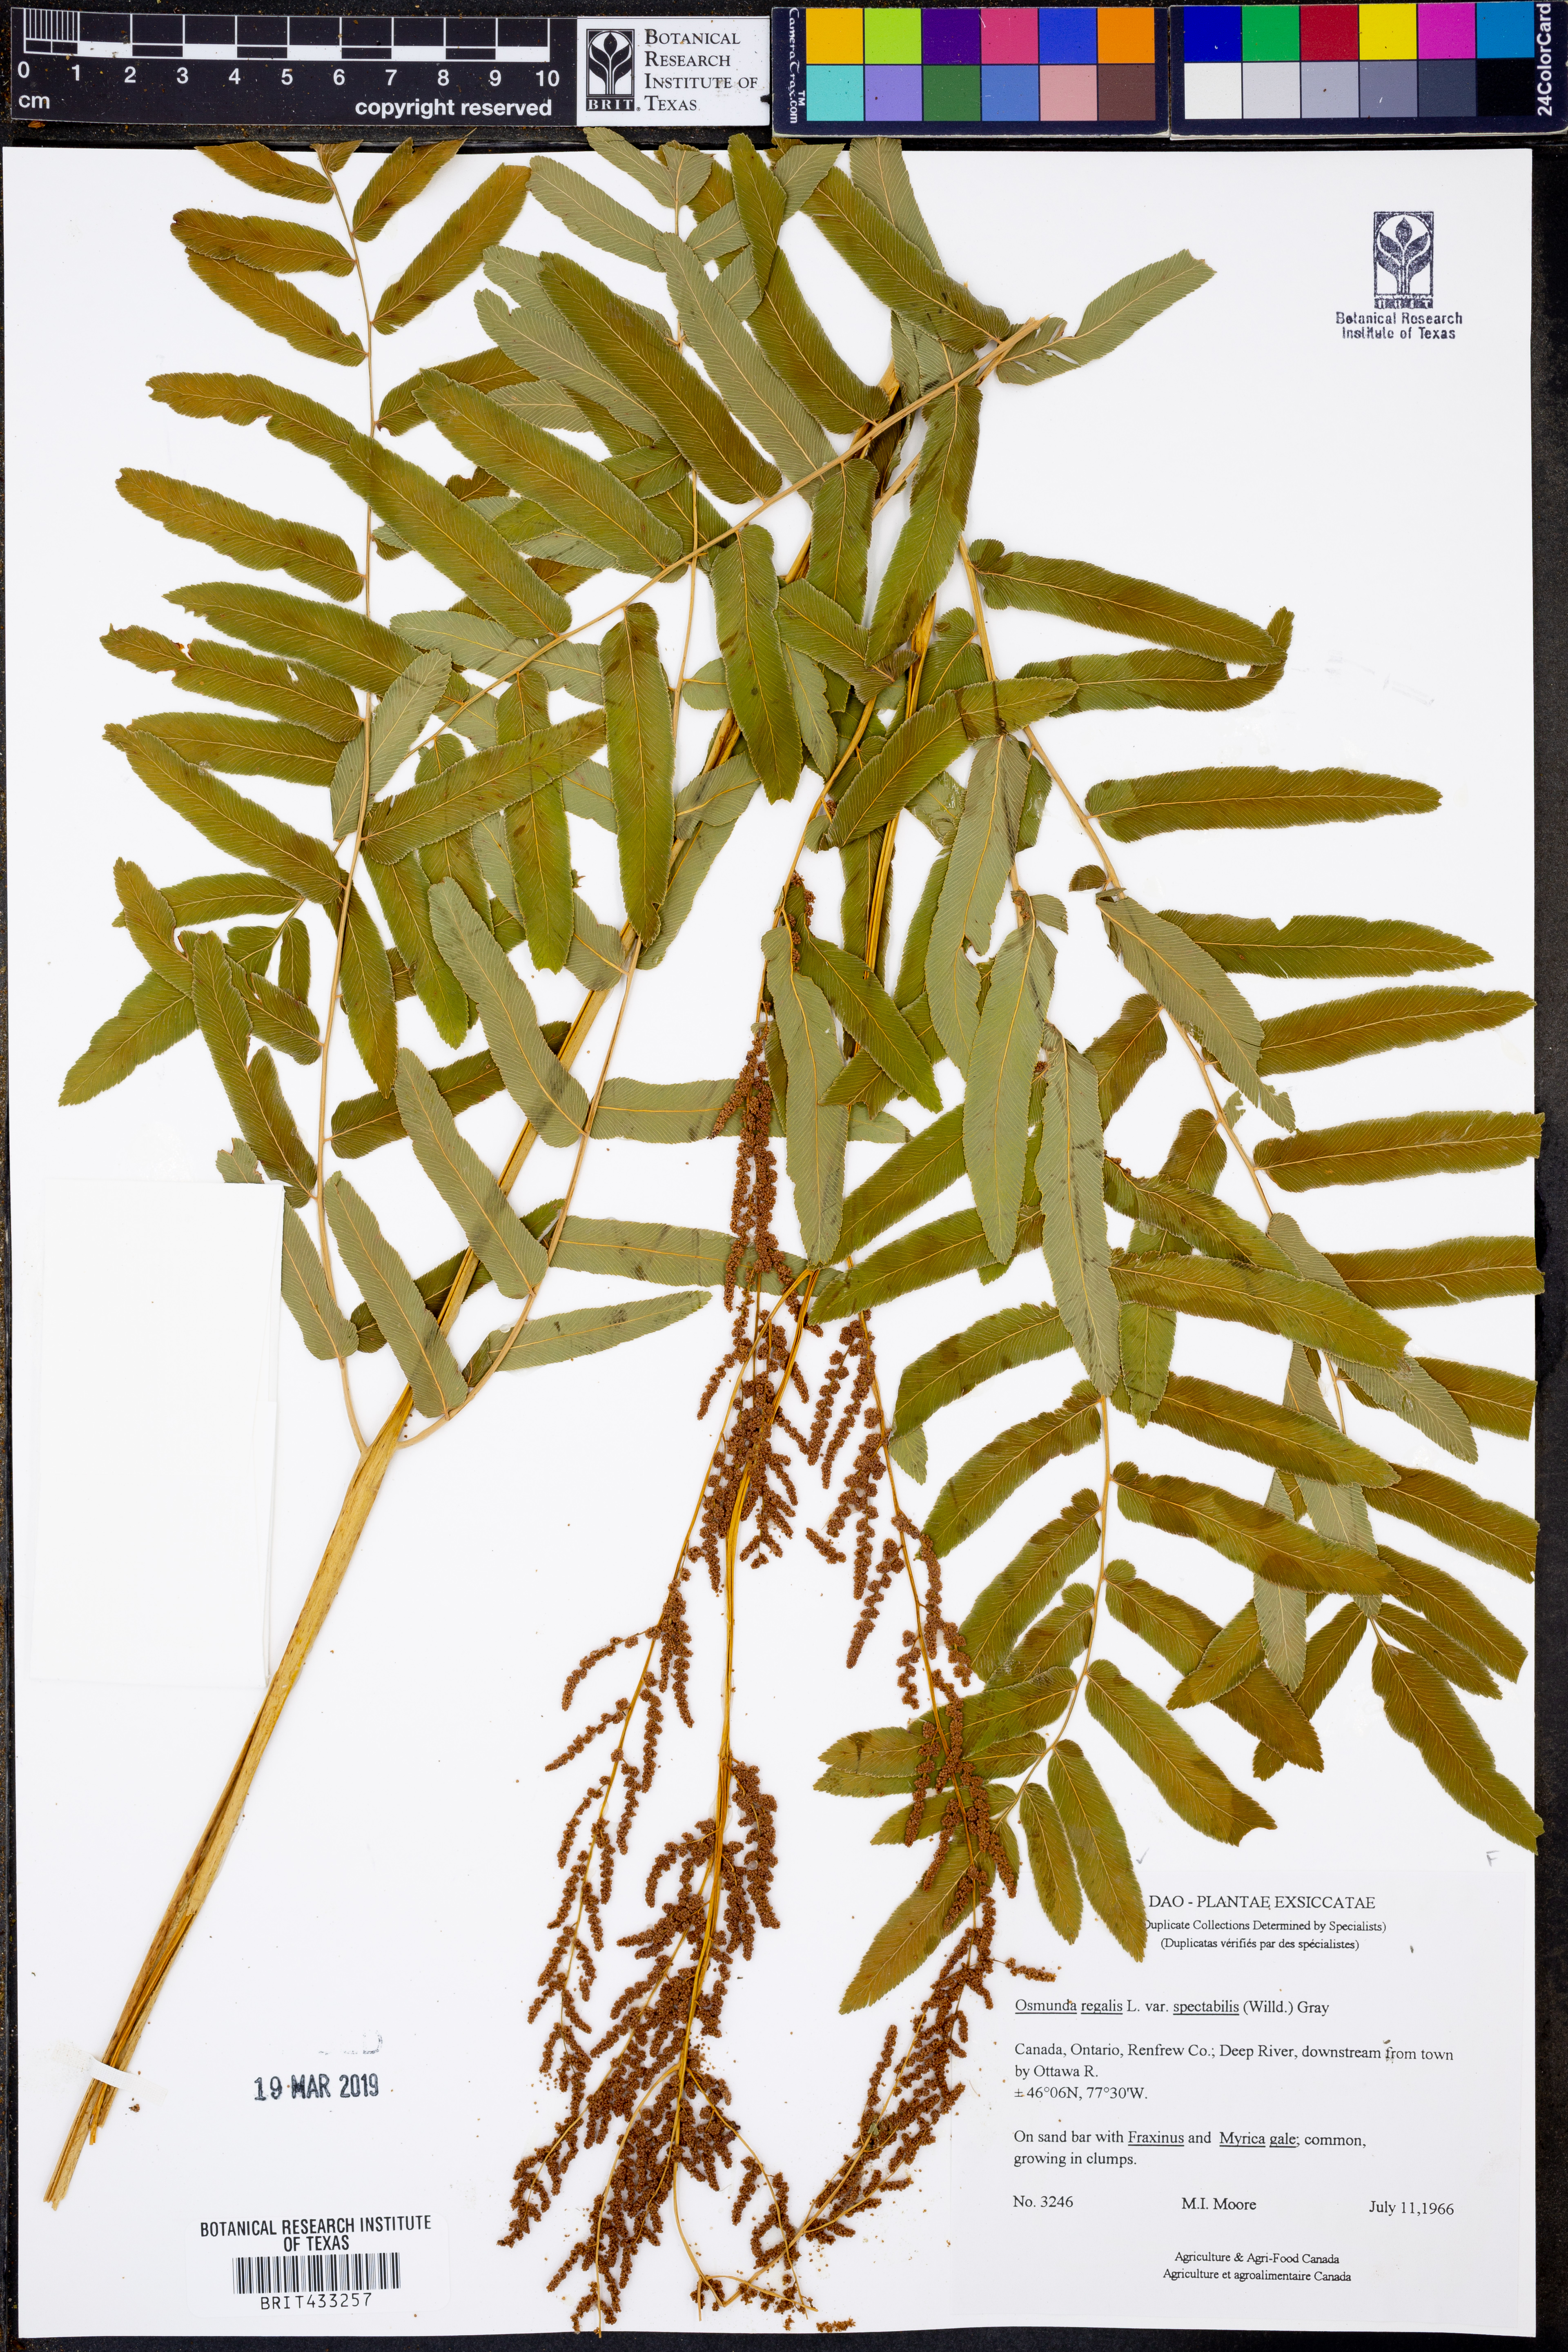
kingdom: Plantae
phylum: Tracheophyta
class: Polypodiopsida
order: Osmundales
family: Osmundaceae
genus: Osmunda
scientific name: Osmunda spectabilis
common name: American royal fern
